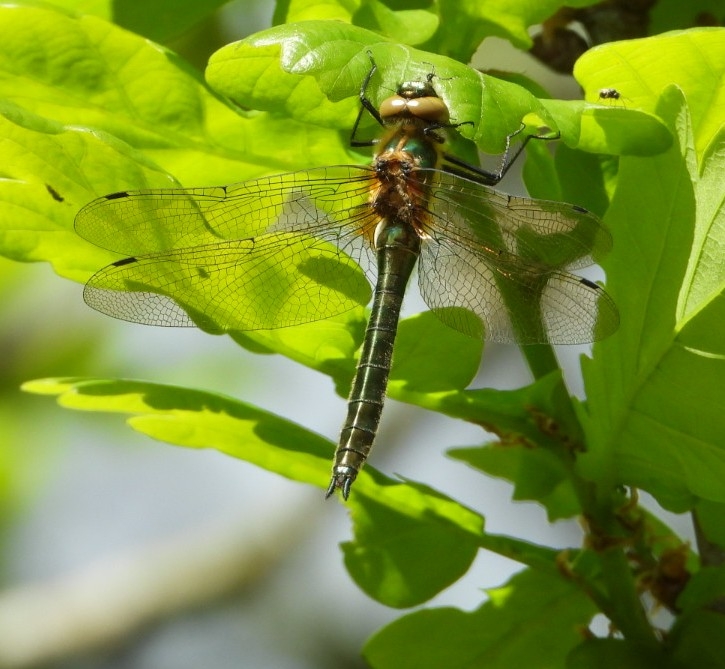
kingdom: Animalia
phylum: Arthropoda
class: Insecta
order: Odonata
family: Corduliidae
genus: Cordulia
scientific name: Cordulia aenea
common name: Grøn smaragdlibel
